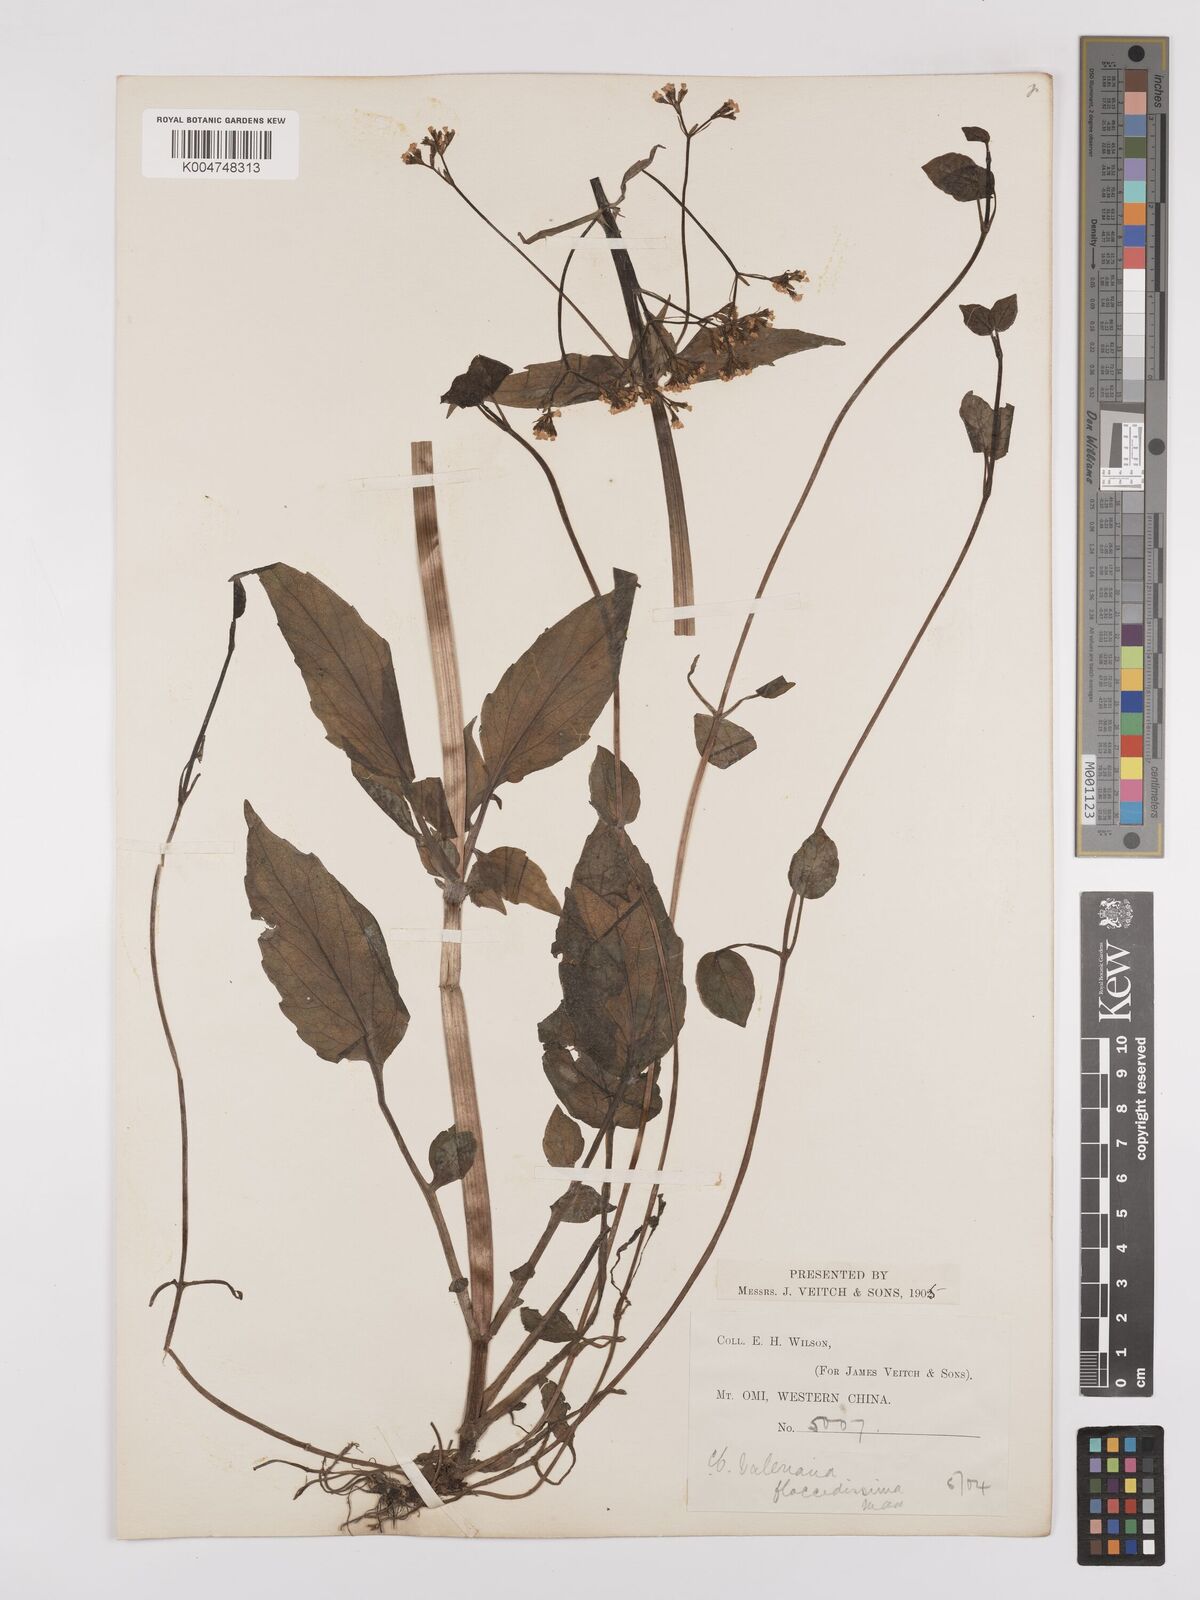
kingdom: Plantae
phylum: Tracheophyta
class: Magnoliopsida
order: Dipsacales
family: Caprifoliaceae
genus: Valeriana
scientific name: Valeriana flaccidissima
